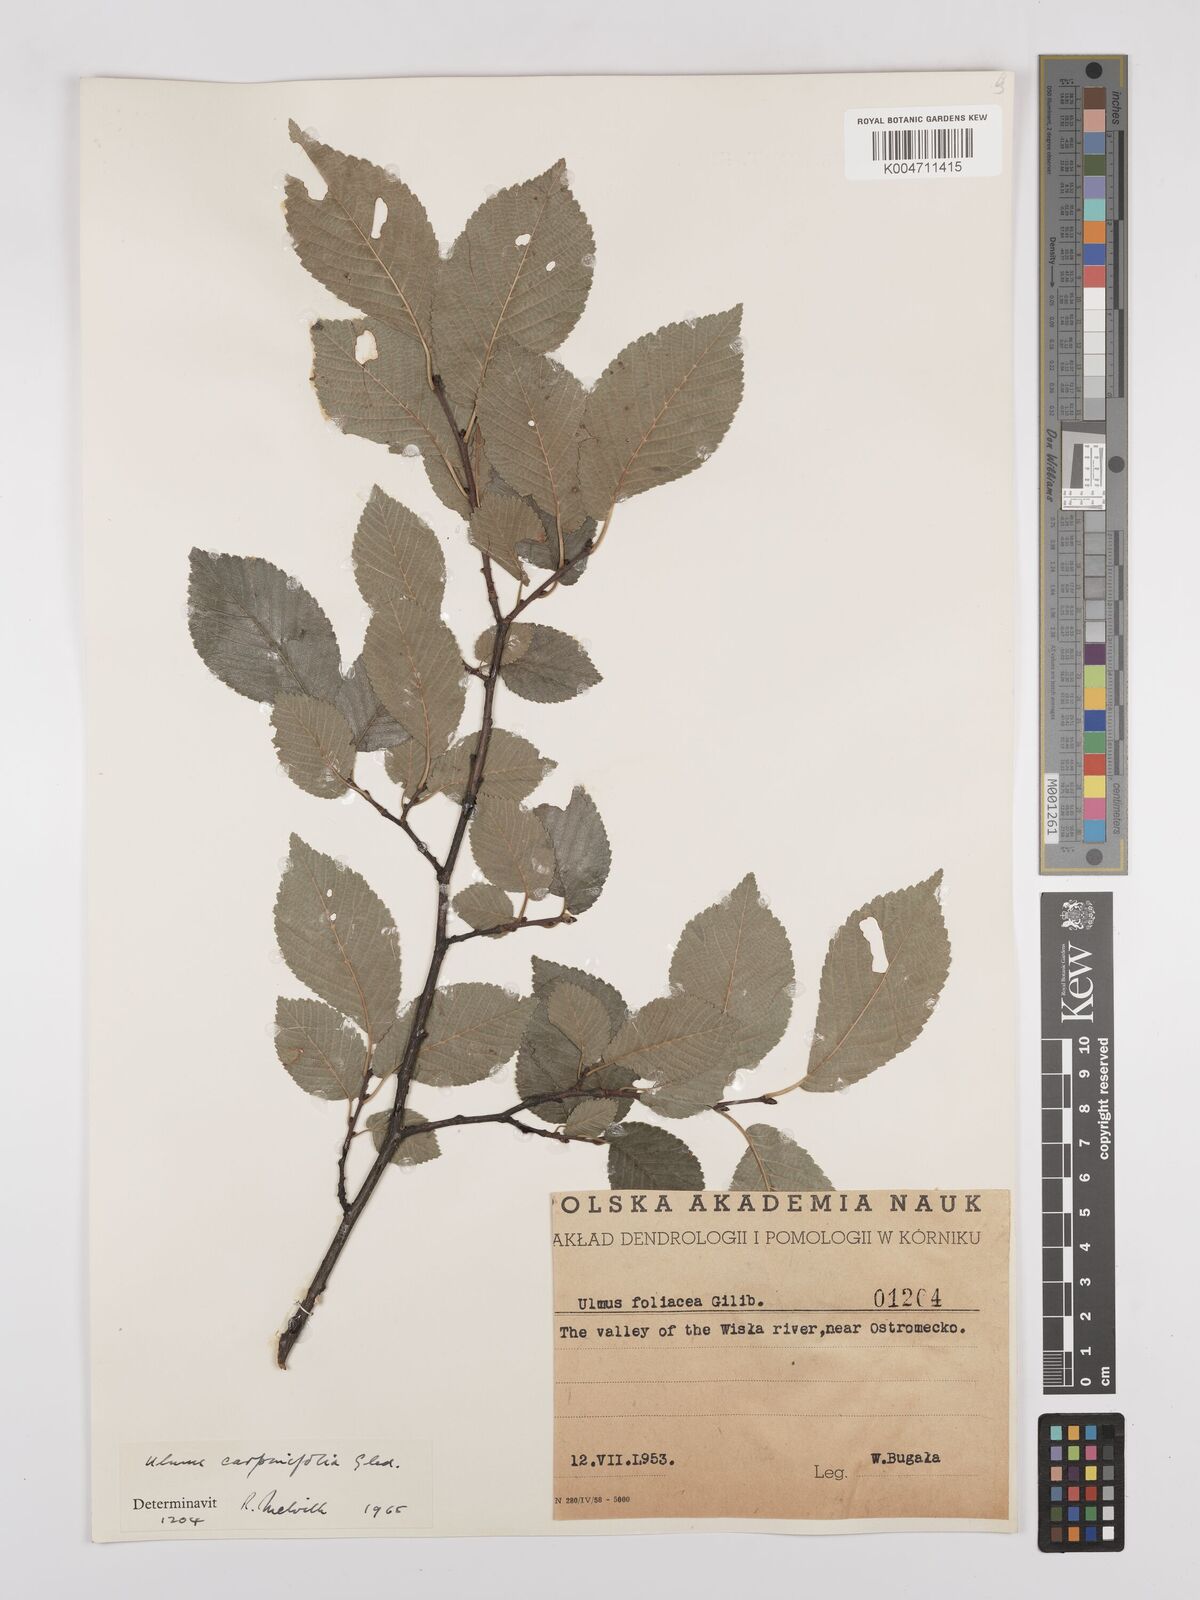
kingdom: Plantae
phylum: Tracheophyta
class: Magnoliopsida
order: Rosales
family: Ulmaceae
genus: Ulmus
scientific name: Ulmus minor
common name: Small-leaved elm
